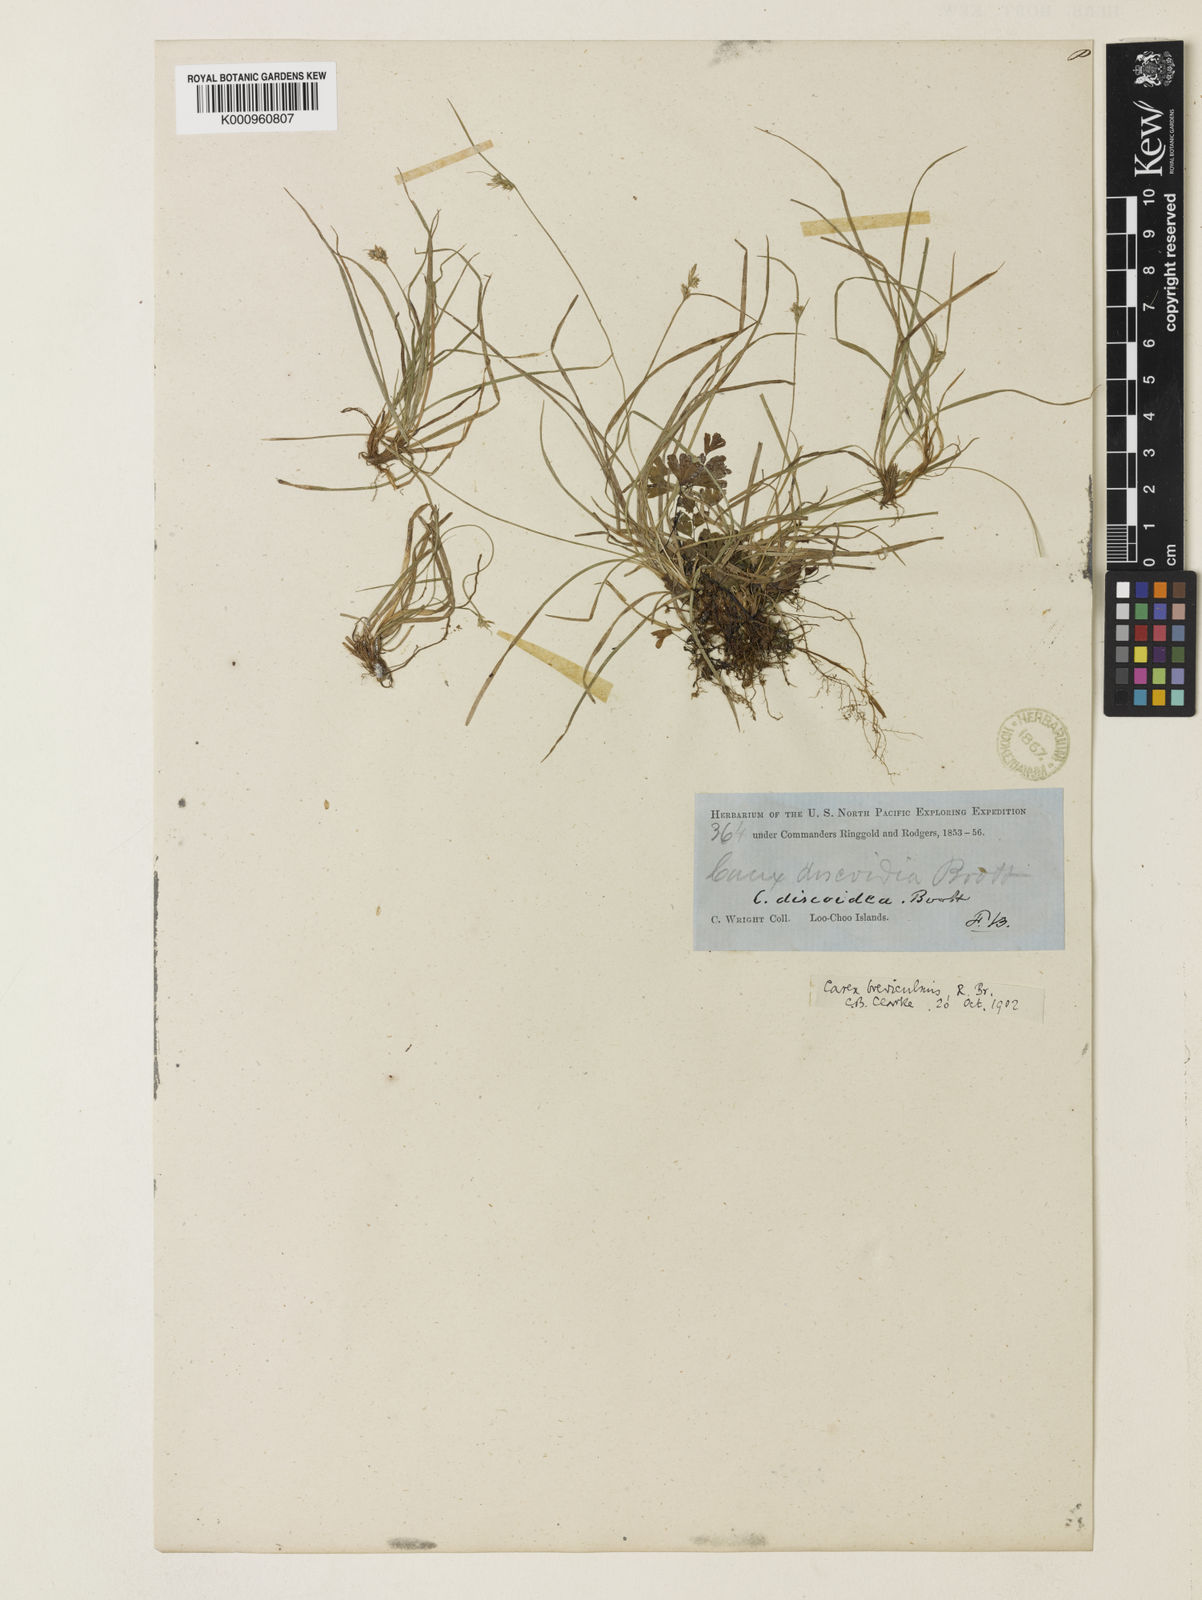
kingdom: Plantae
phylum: Tracheophyta
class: Liliopsida
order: Poales
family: Cyperaceae
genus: Carex
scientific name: Carex breviculmis
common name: Asian shortstem sedge
